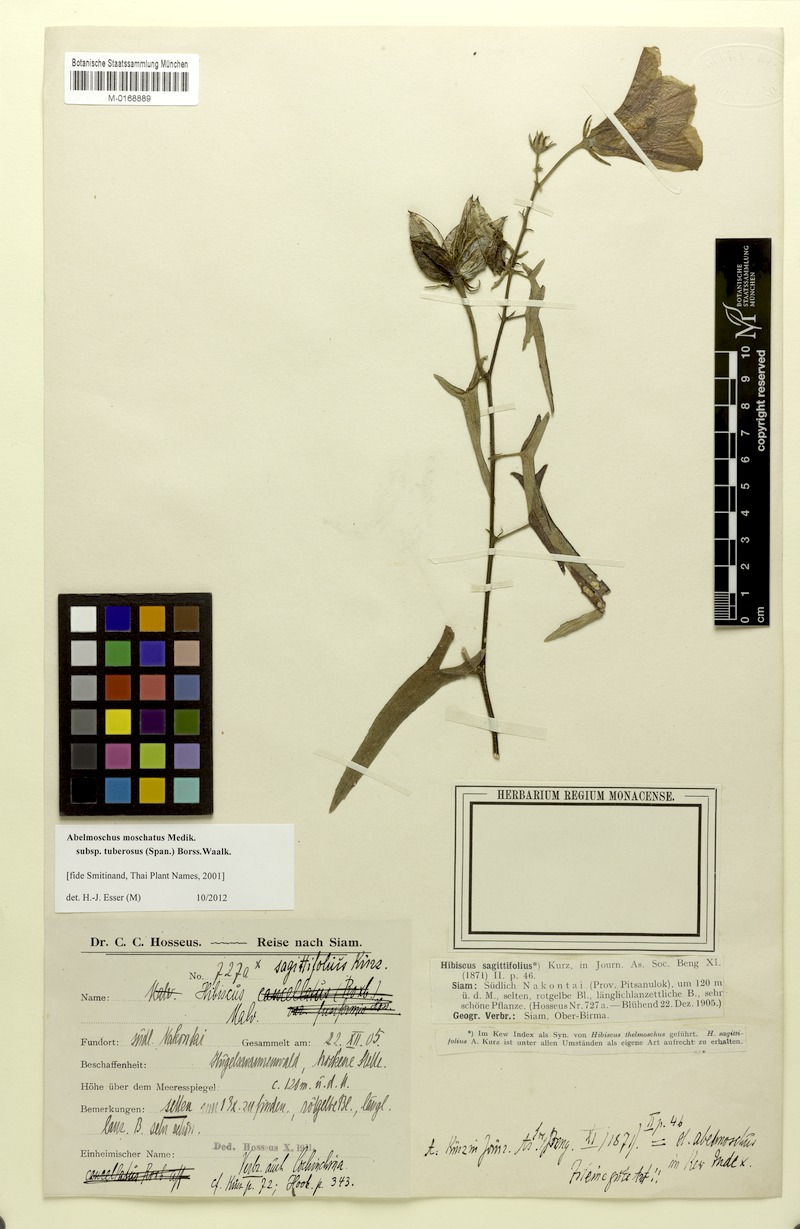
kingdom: Plantae
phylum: Tracheophyta
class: Magnoliopsida
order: Malvales
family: Malvaceae
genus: Abelmoschus
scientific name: Abelmoschus sagittifolius
